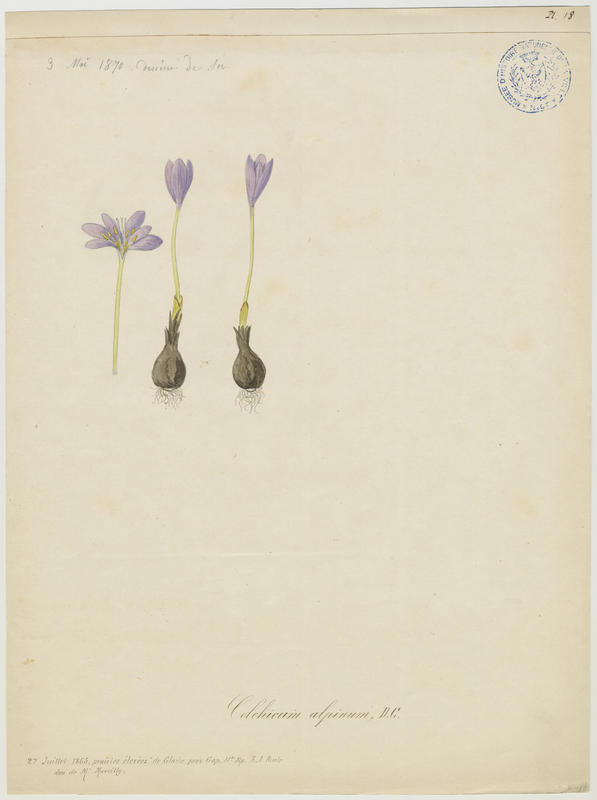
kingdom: Plantae
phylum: Tracheophyta
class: Liliopsida
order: Liliales
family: Colchicaceae
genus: Colchicum
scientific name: Colchicum alpinum
